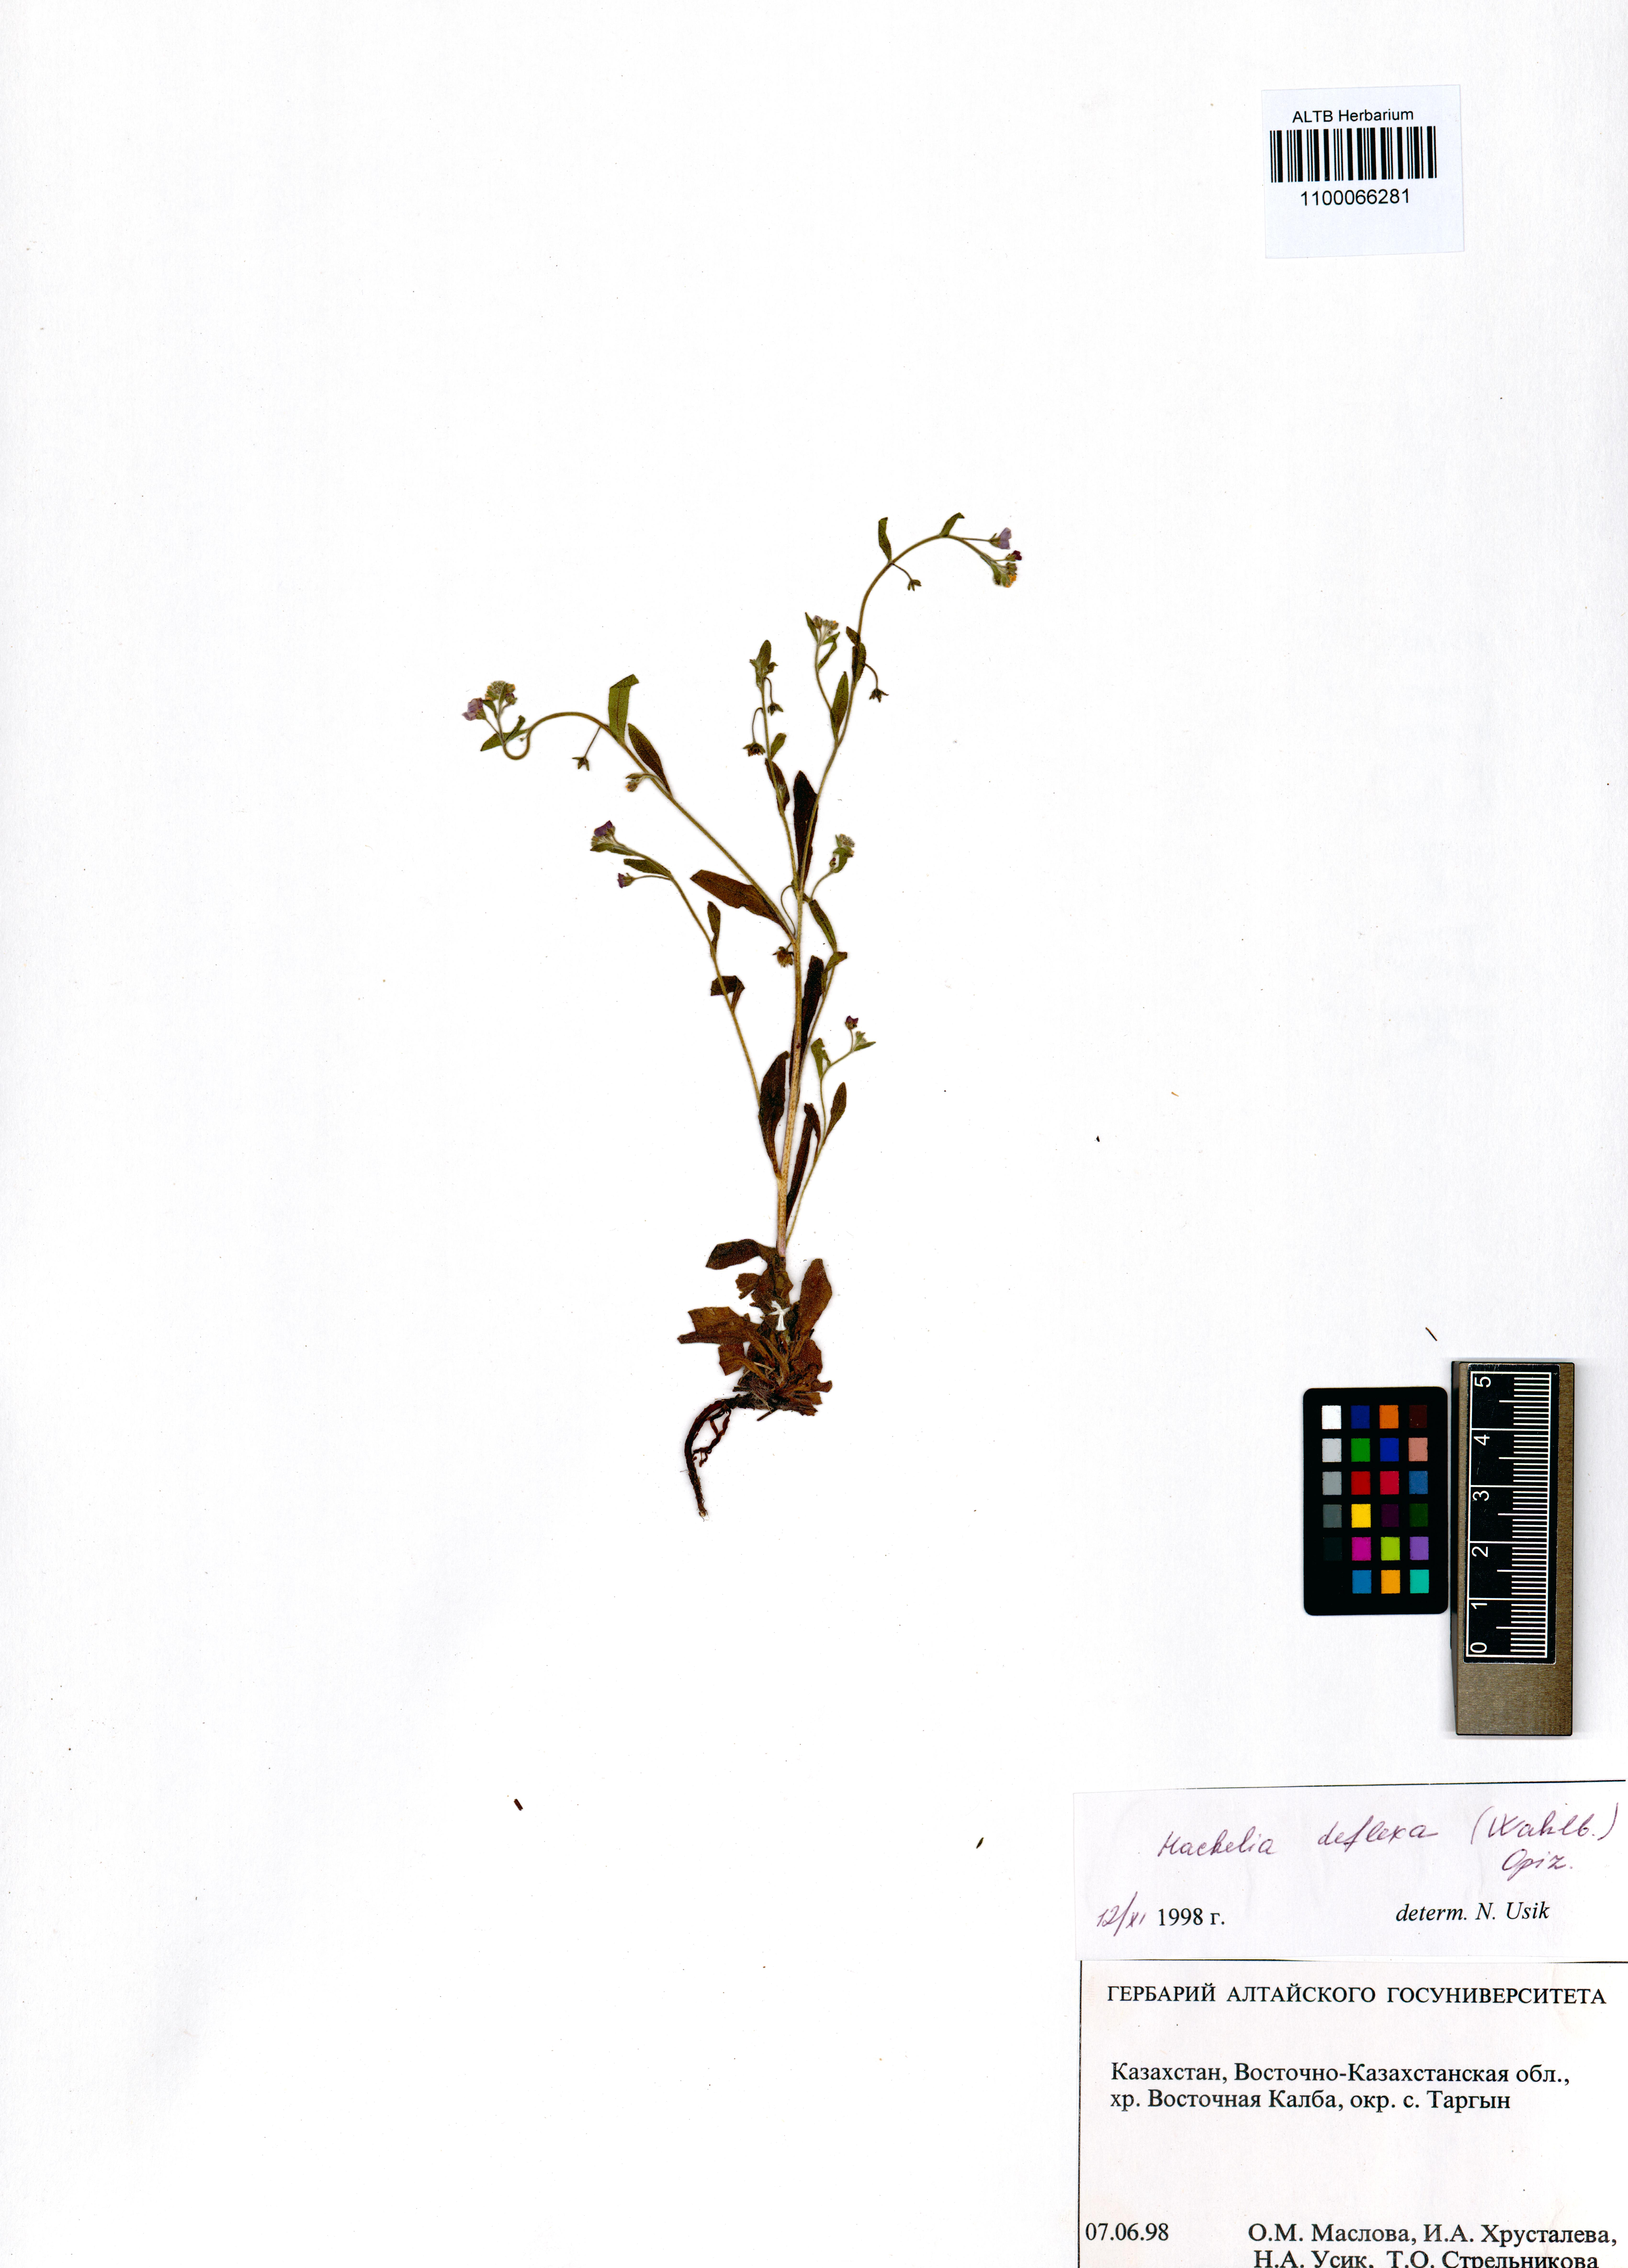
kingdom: Plantae
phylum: Tracheophyta
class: Magnoliopsida
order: Boraginales
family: Boraginaceae
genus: Hackelia
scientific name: Hackelia deflexa
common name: Nodding stickseed
